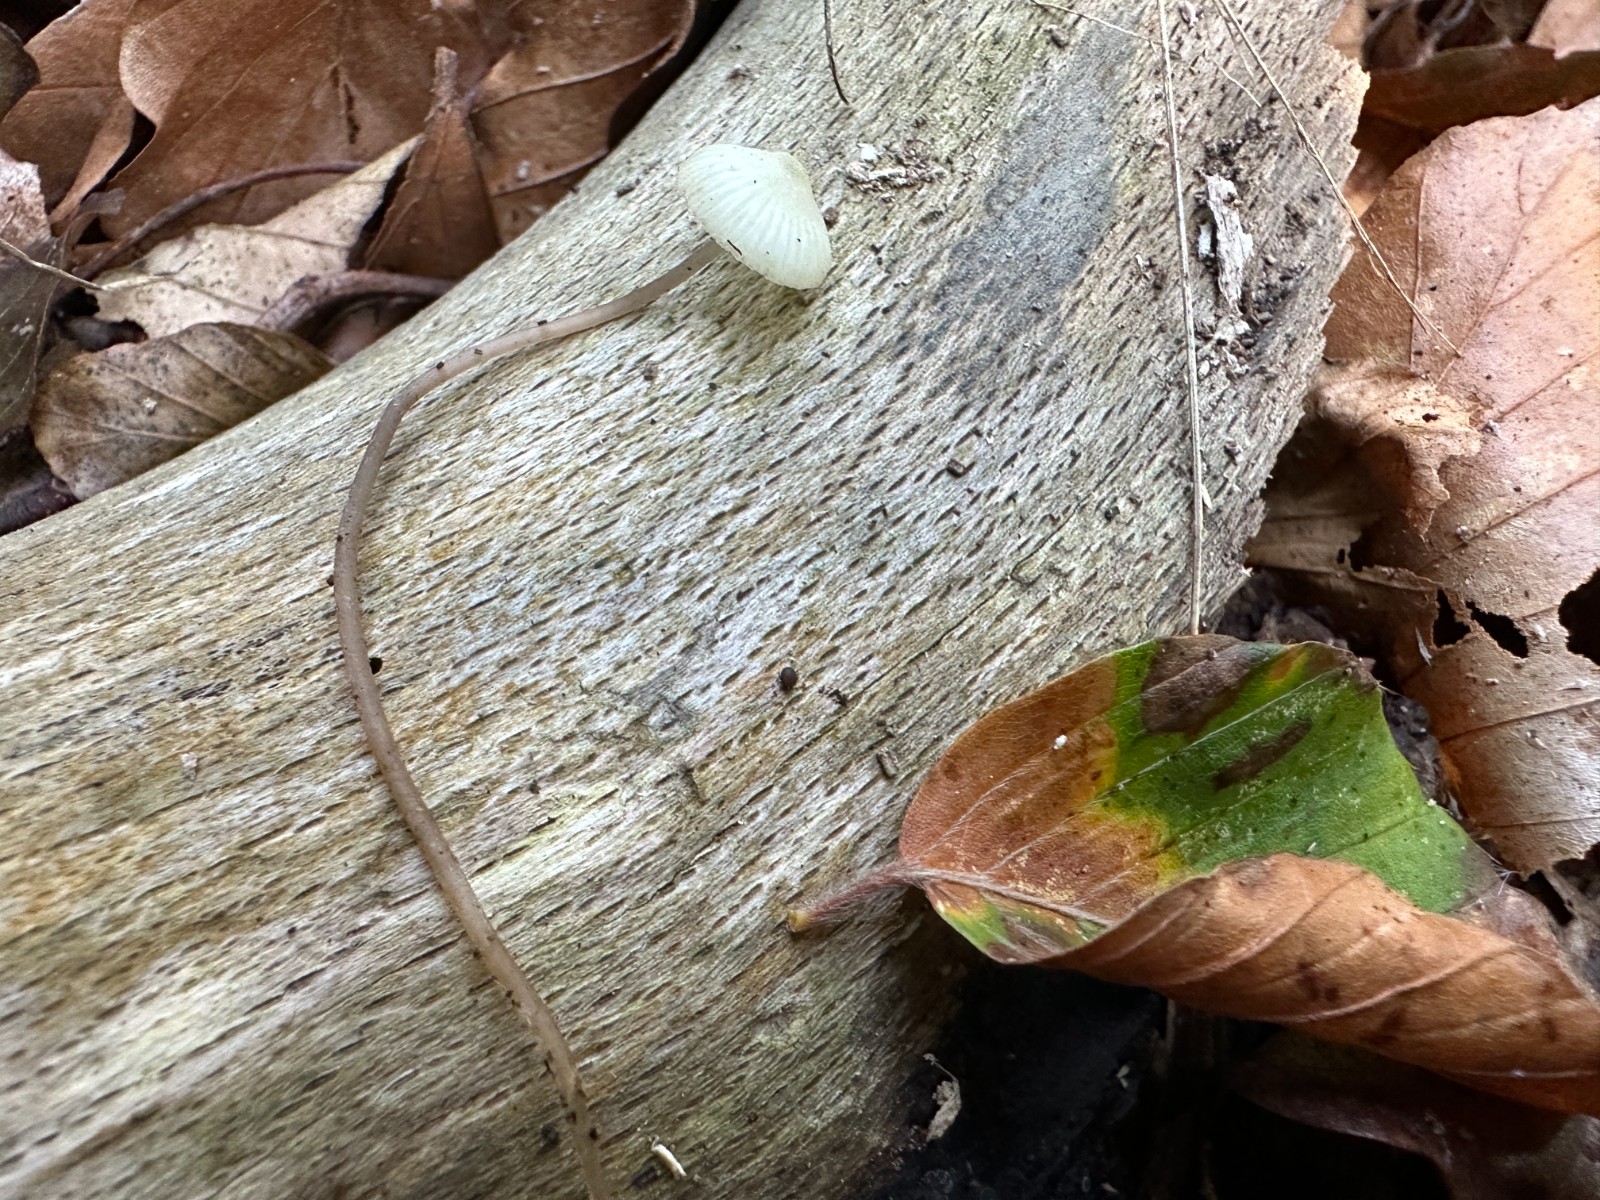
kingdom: Fungi
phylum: Basidiomycota
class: Agaricomycetes
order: Agaricales
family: Mycenaceae
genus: Mycena
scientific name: Mycena flavescens
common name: grågul huesvamp
